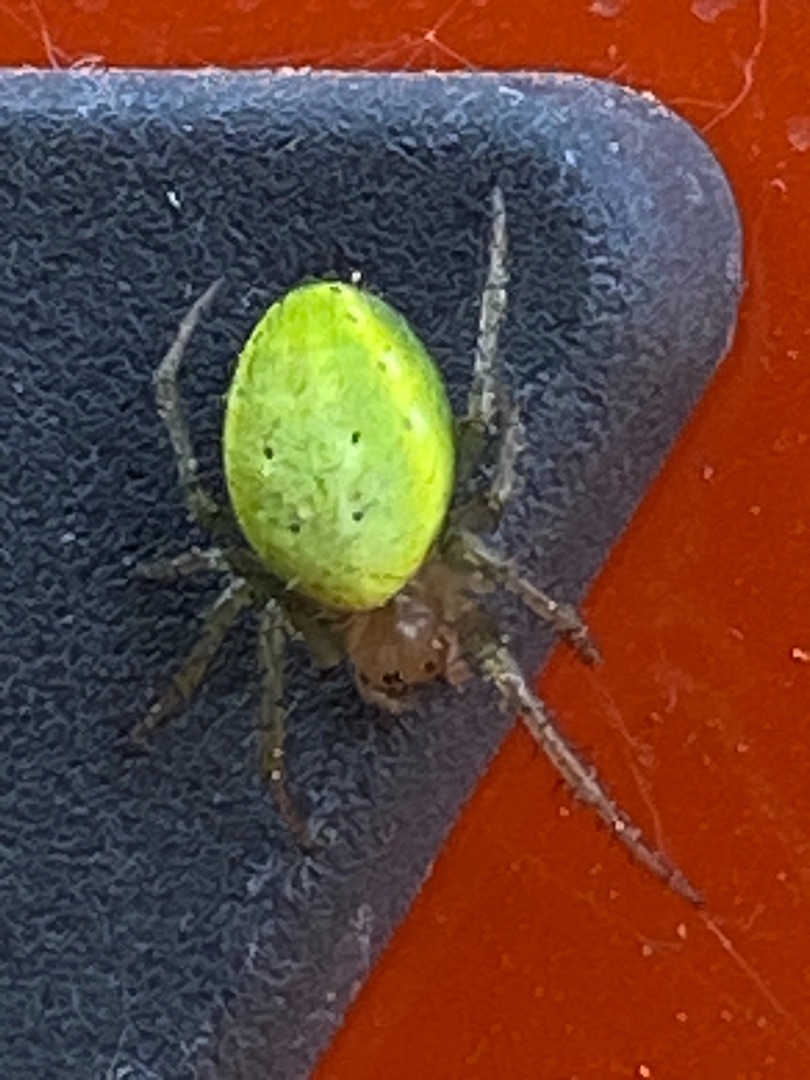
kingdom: Animalia
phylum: Arthropoda
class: Arachnida
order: Araneae
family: Araneidae
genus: Araniella
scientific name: Araniella
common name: Agurkeedderkopslægten
